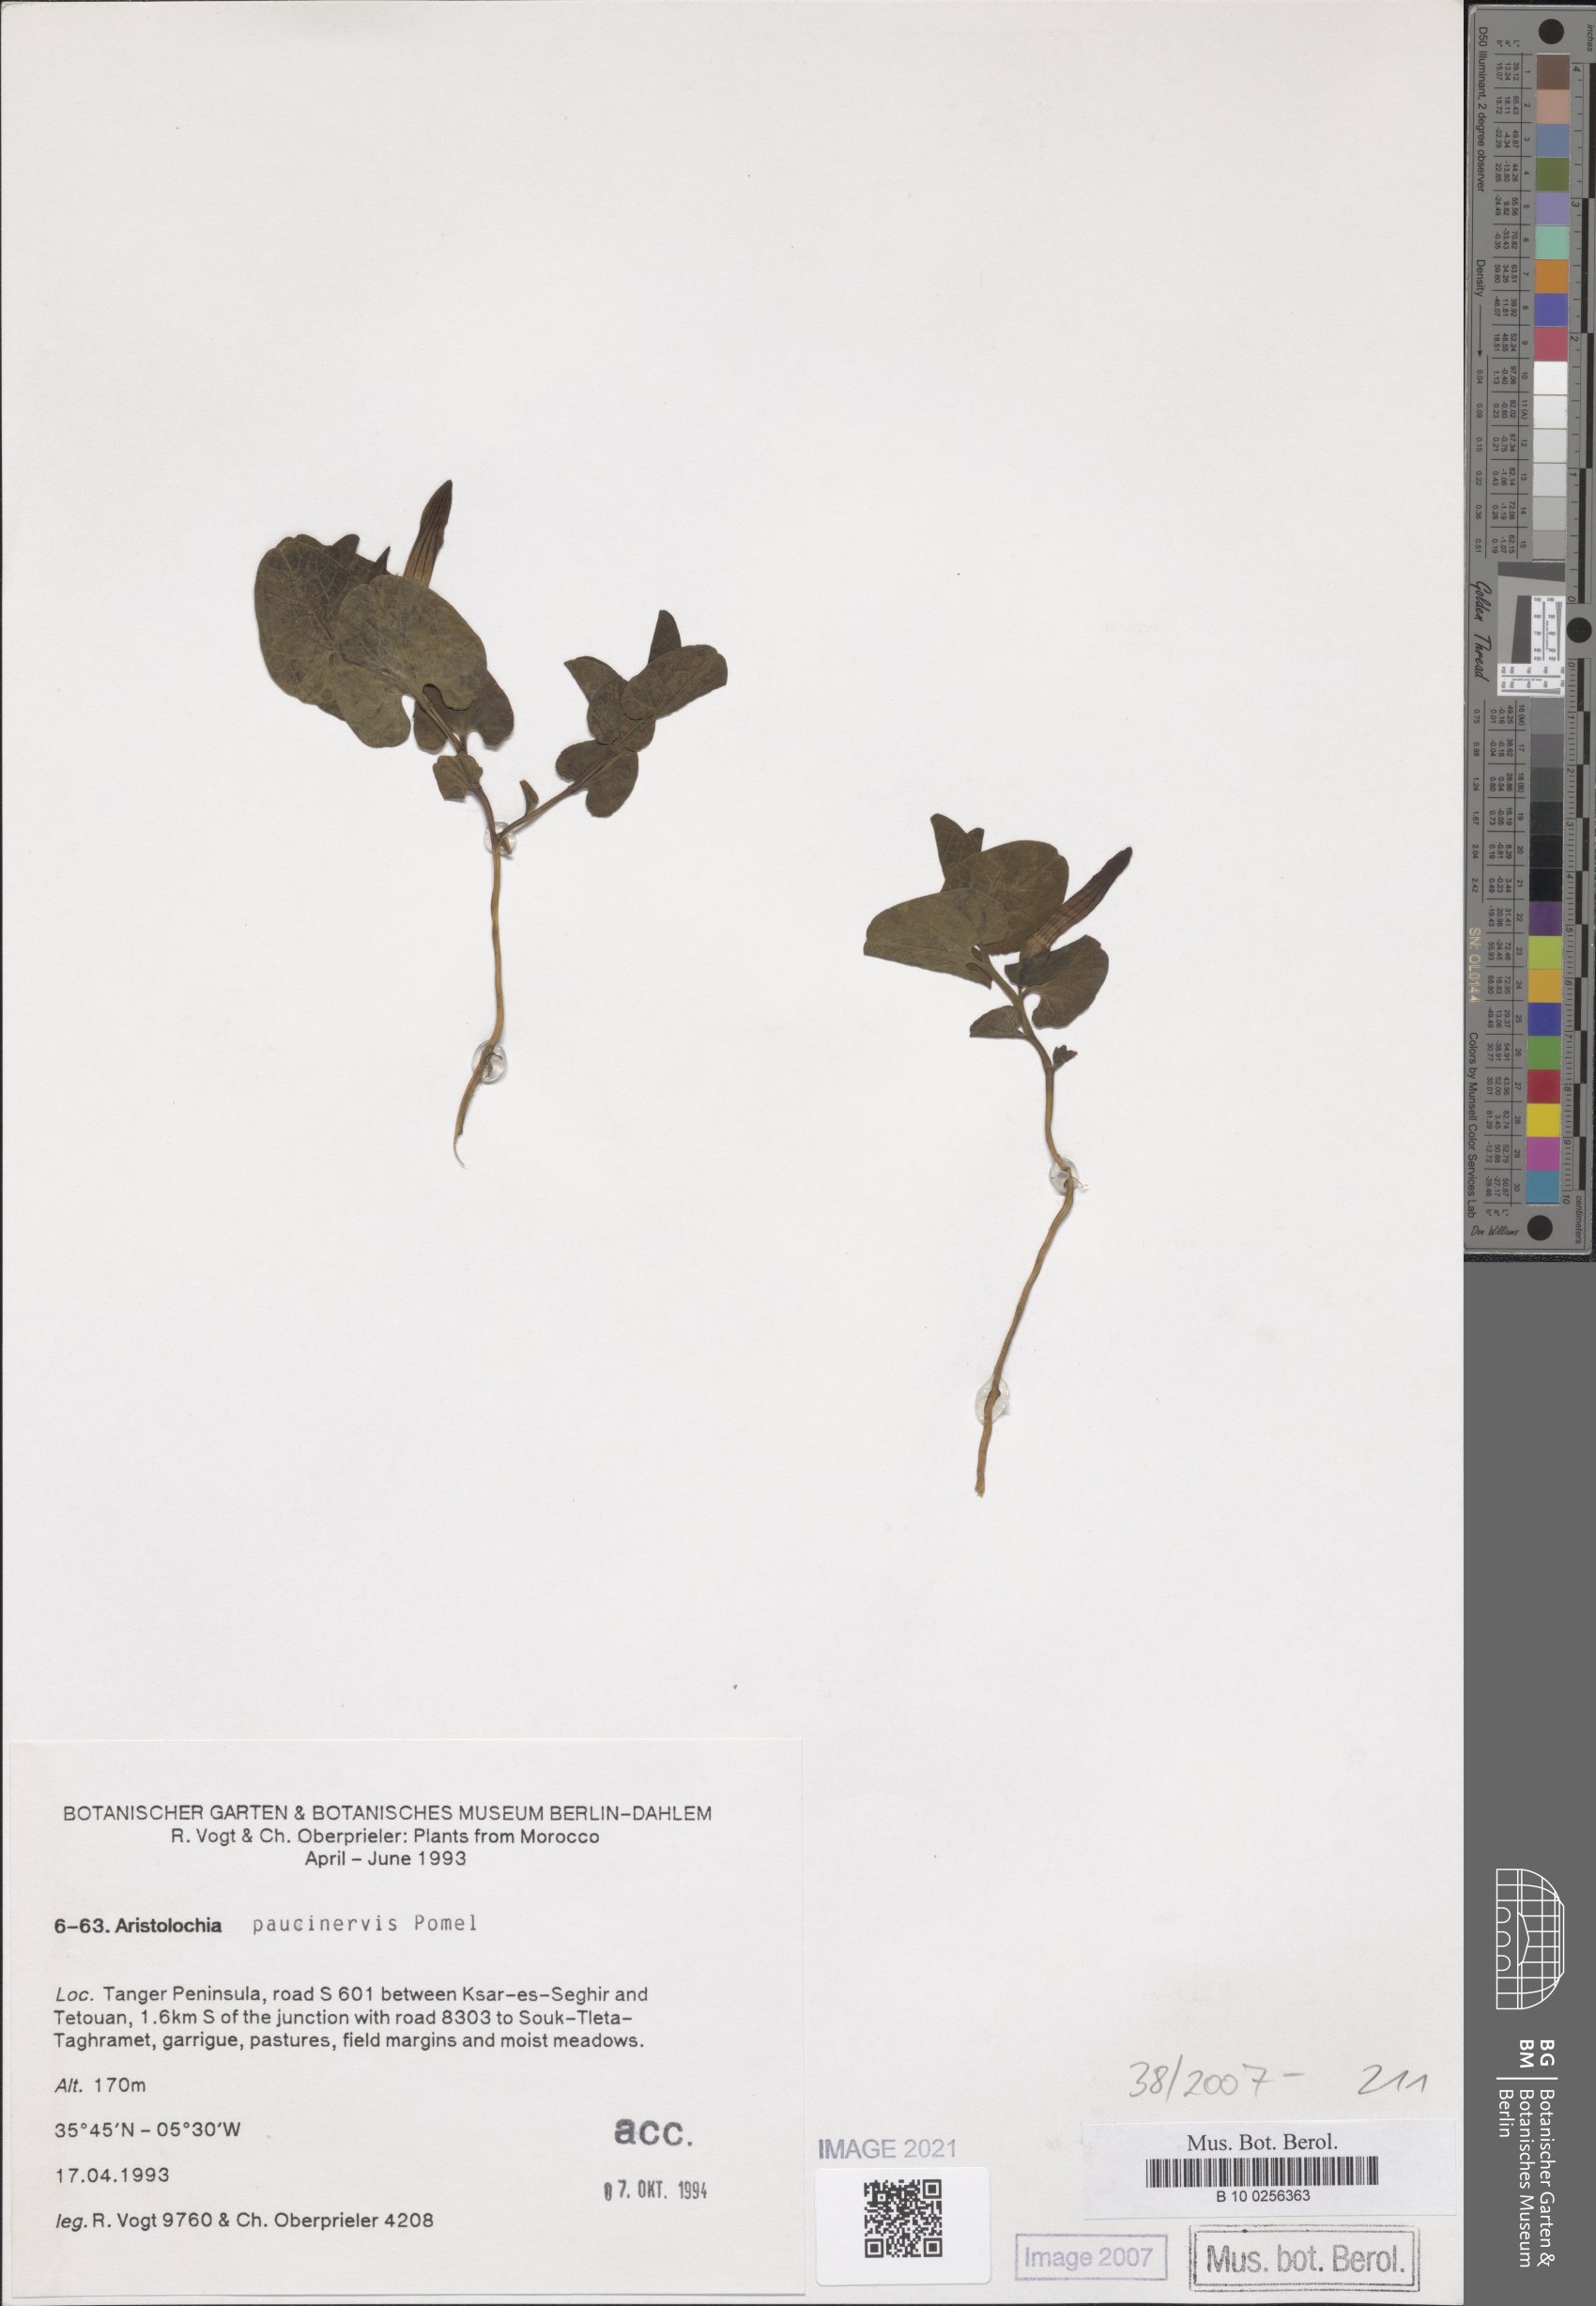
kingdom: Plantae
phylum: Tracheophyta
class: Magnoliopsida
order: Piperales
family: Aristolochiaceae
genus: Aristolochia
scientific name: Aristolochia paucinervis
